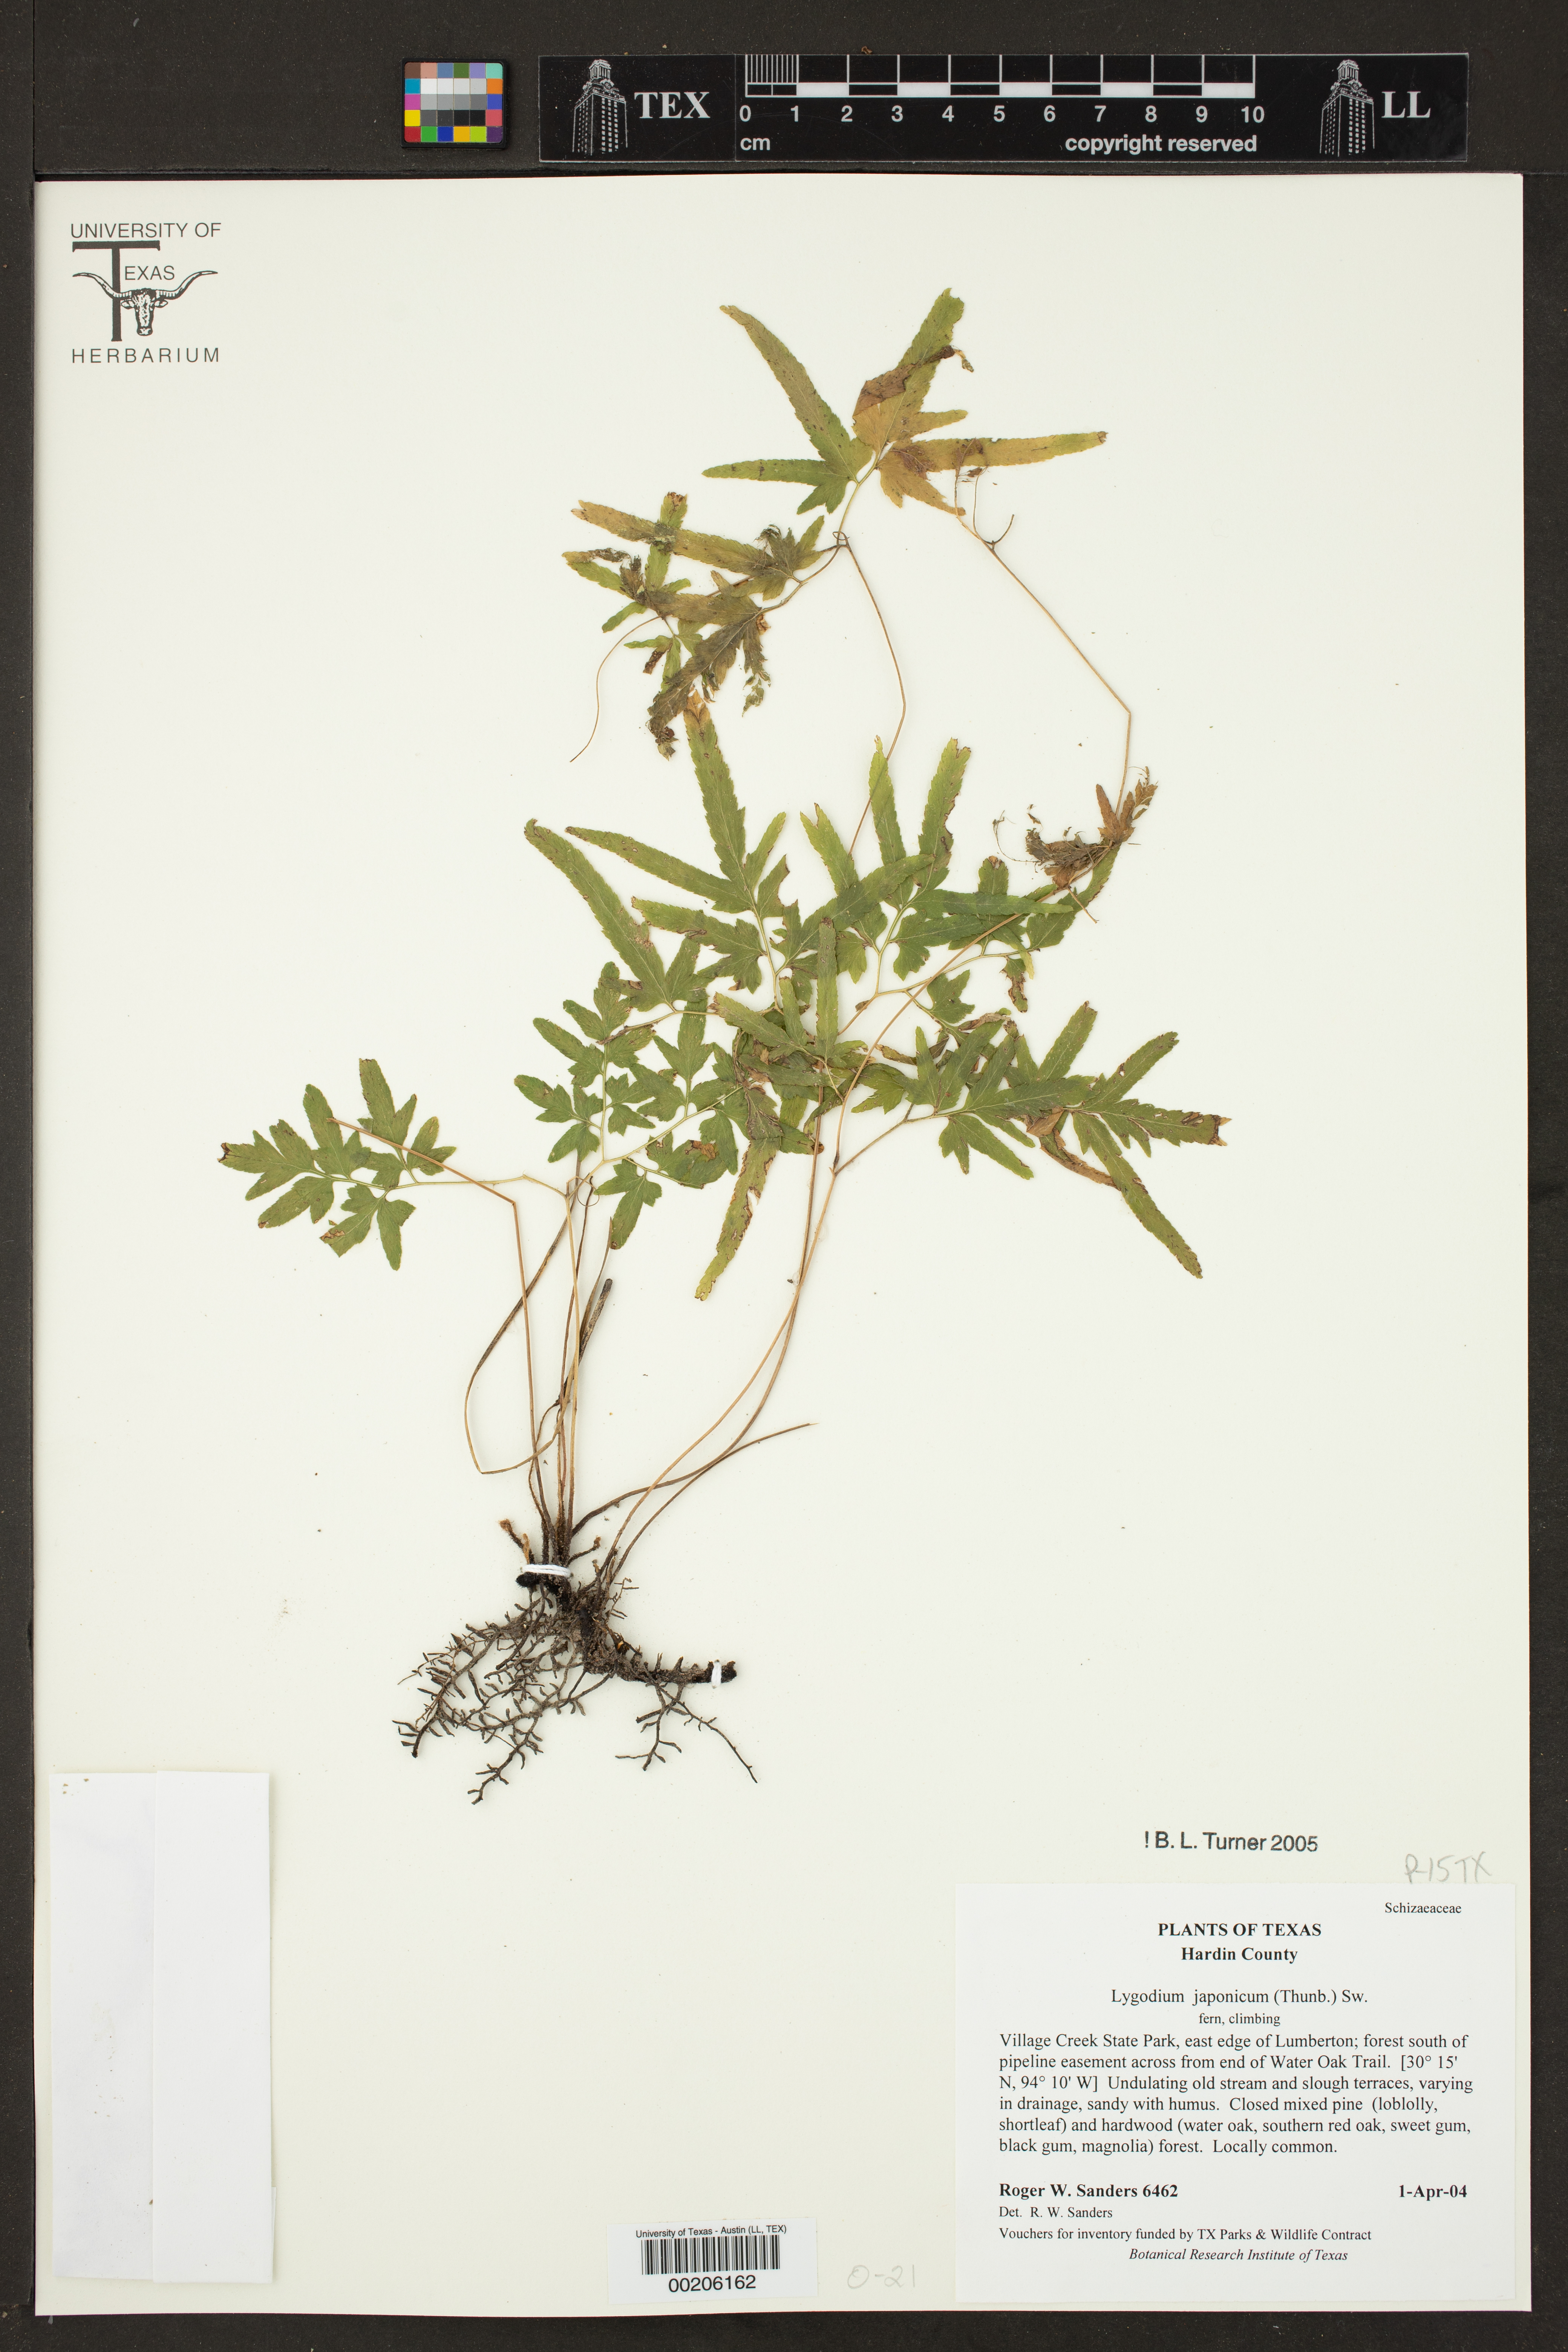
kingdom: Plantae
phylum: Tracheophyta
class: Polypodiopsida
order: Schizaeales
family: Lygodiaceae
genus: Lygodium
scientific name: Lygodium japonicum
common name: Japanese climbing fern
